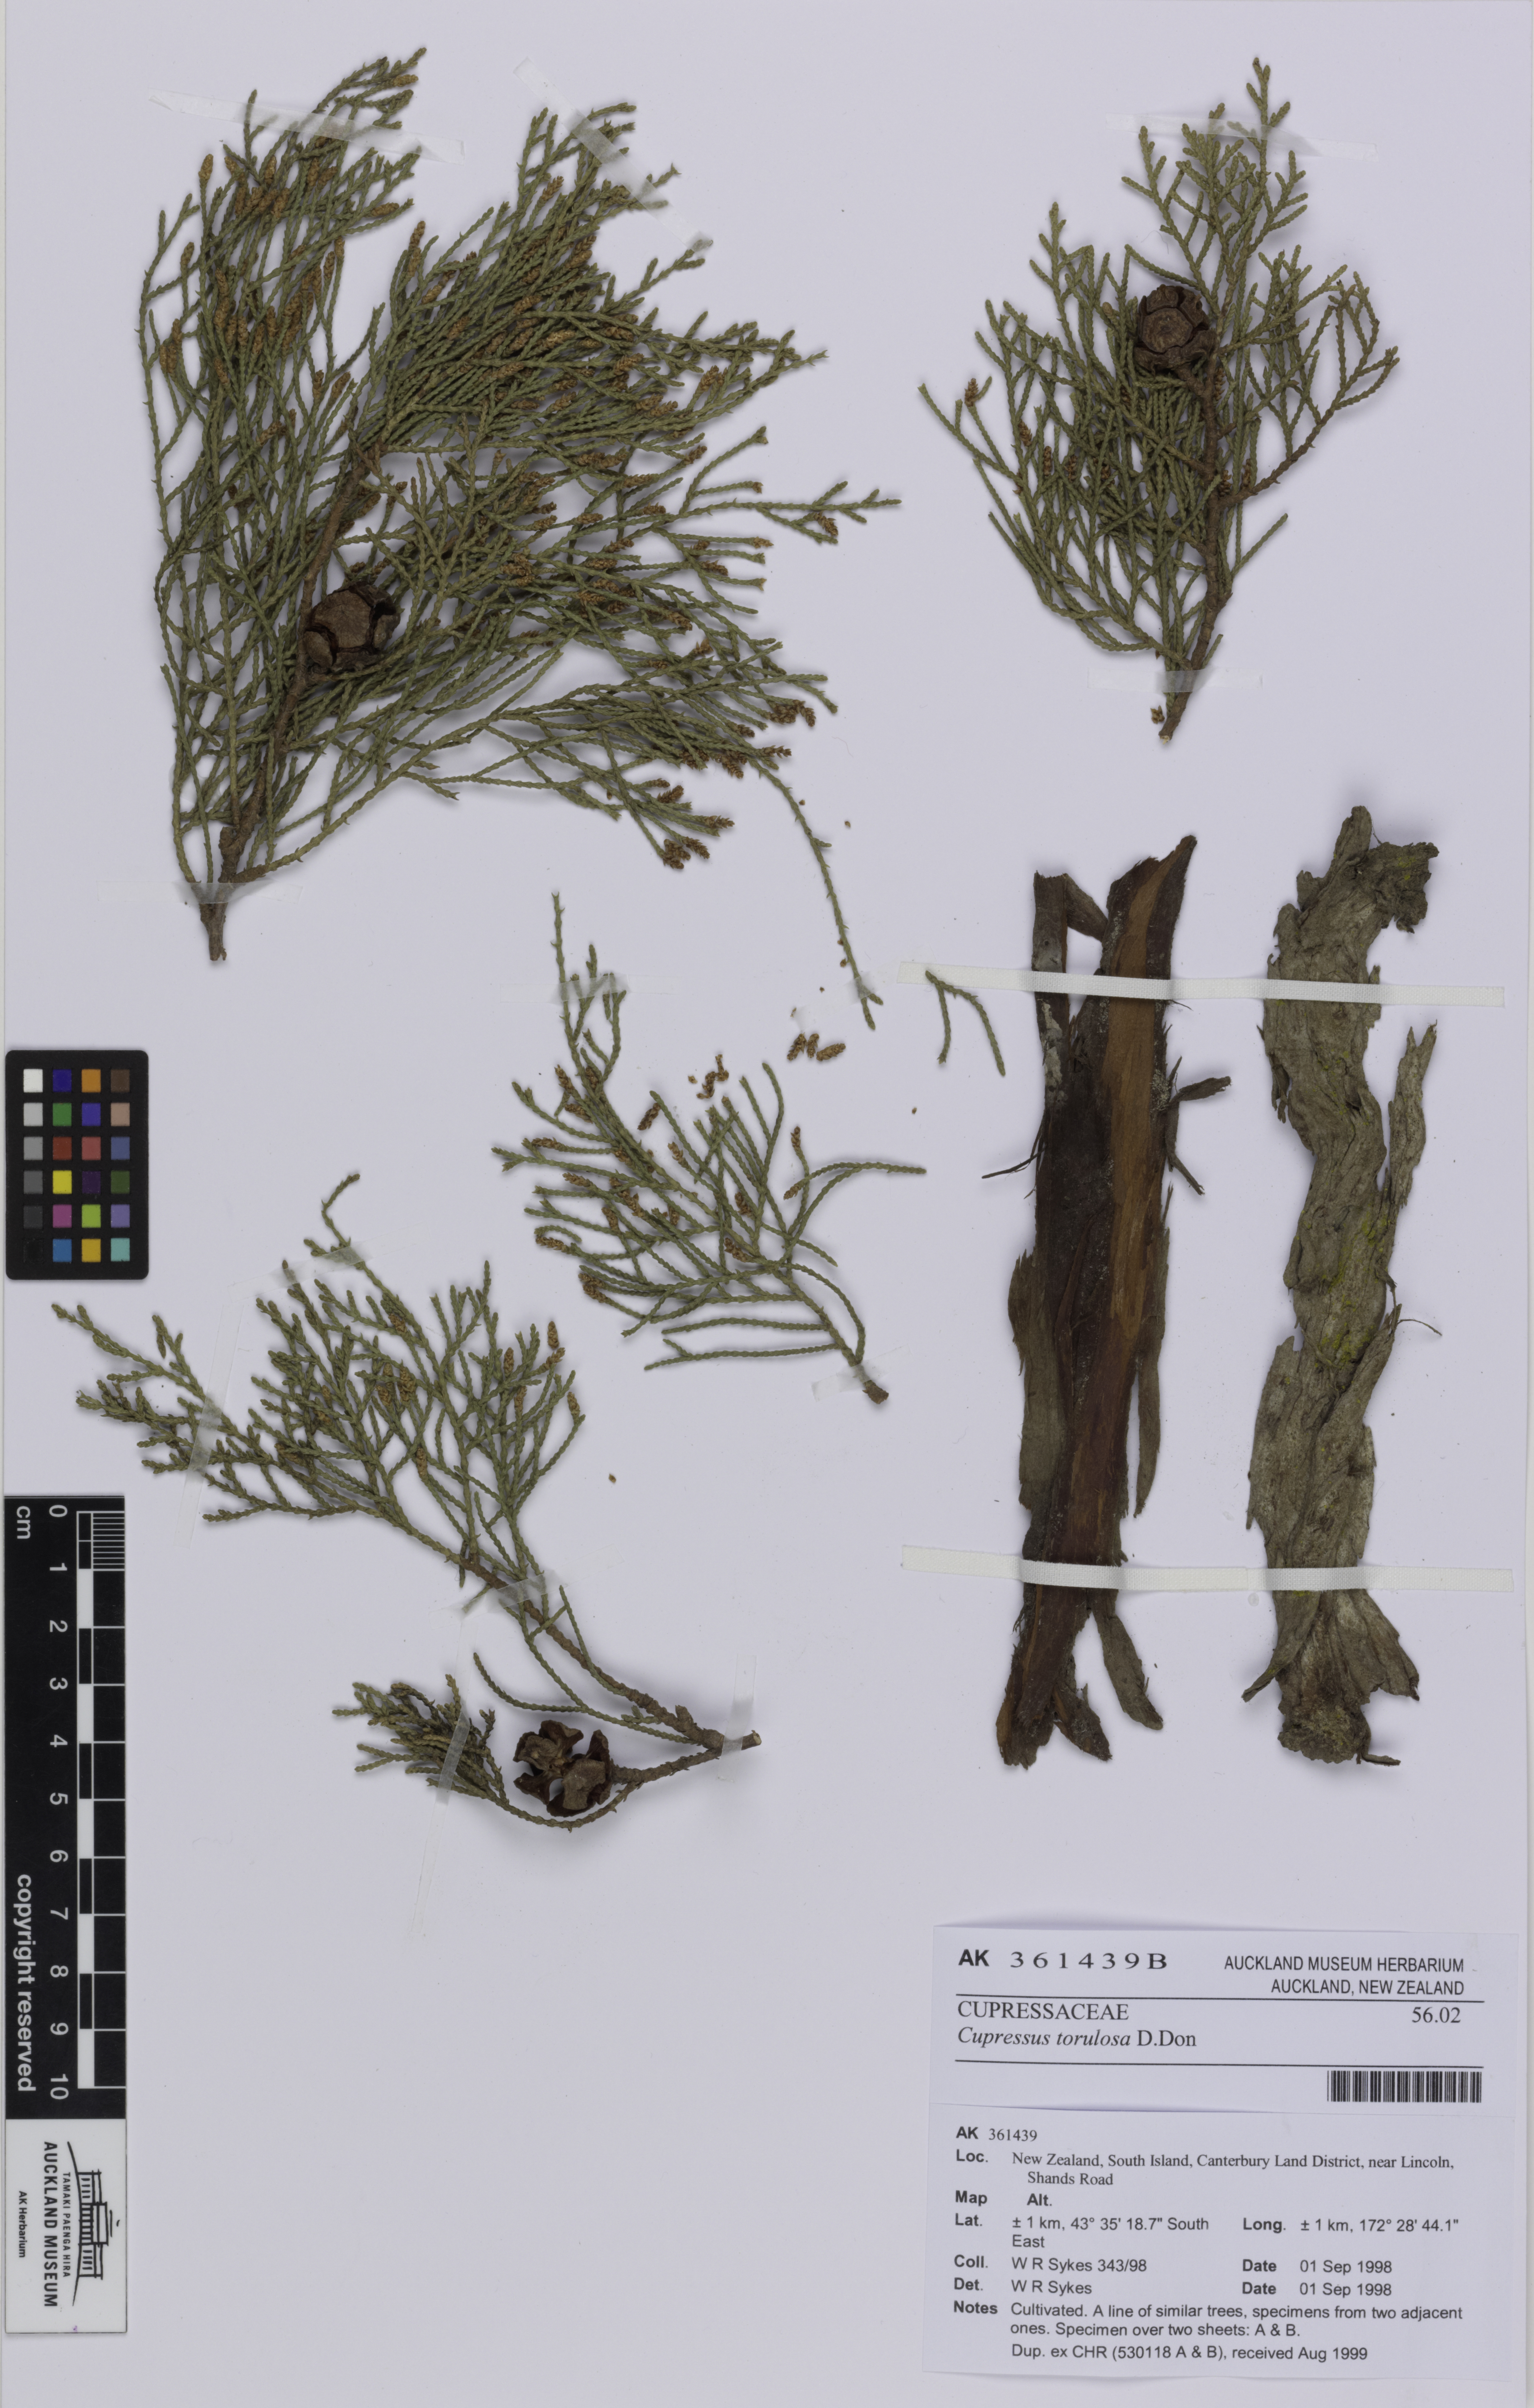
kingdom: Plantae
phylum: Tracheophyta
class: Pinopsida
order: Pinales
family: Cupressaceae
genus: Cupressus
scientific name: Cupressus torulosa
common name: Himalayan cypress
